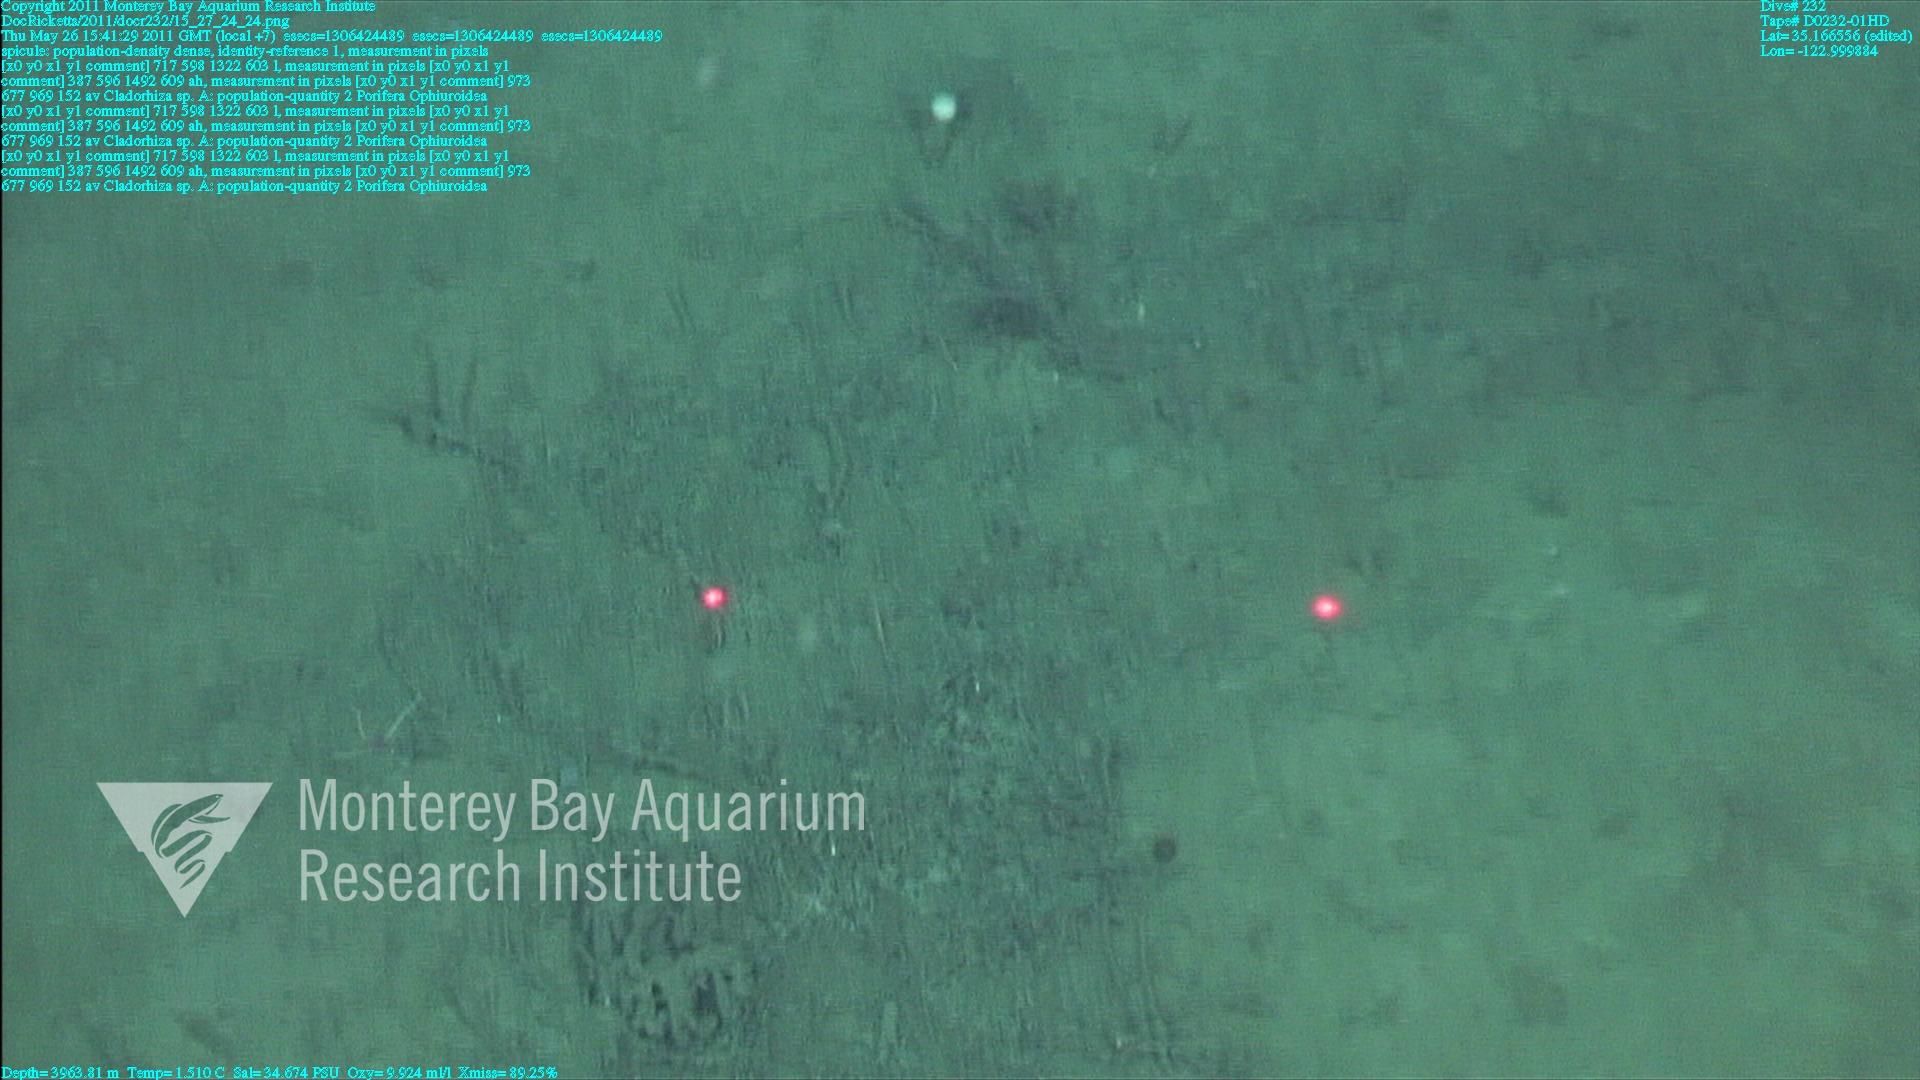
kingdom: Animalia
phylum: Porifera
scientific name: Porifera
